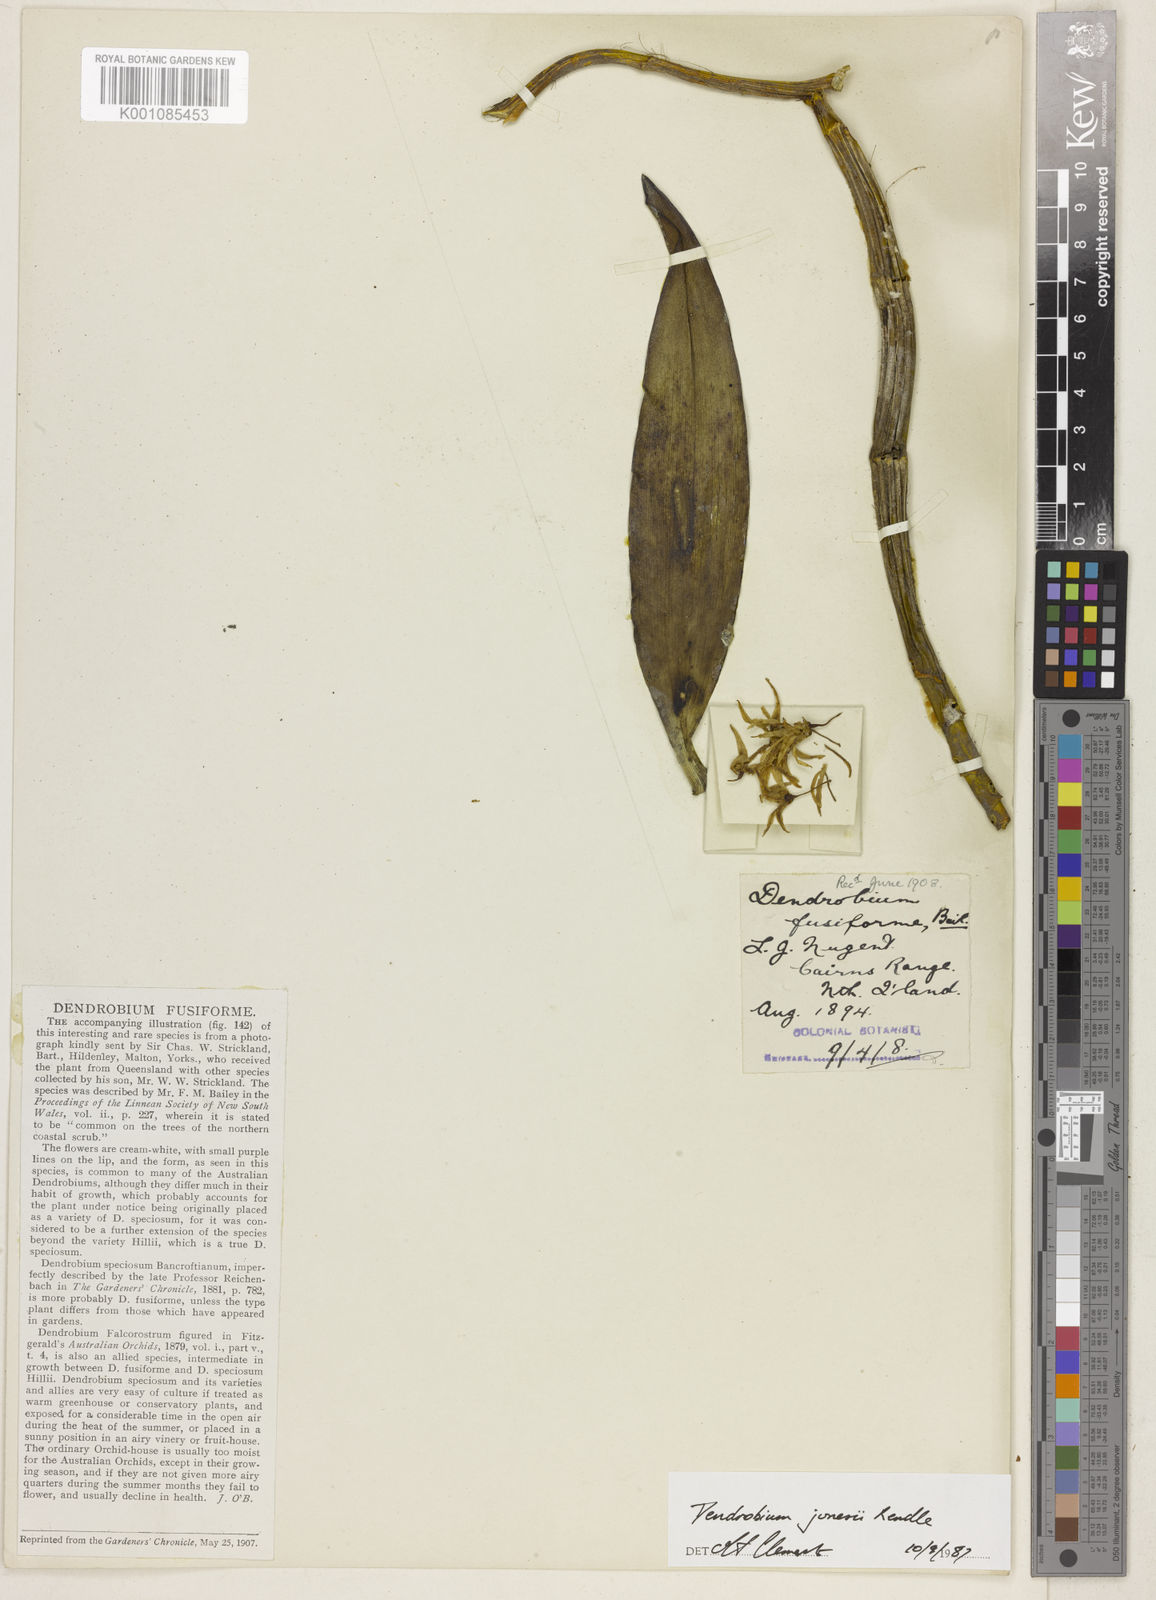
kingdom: Plantae
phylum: Tracheophyta
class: Liliopsida
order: Asparagales
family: Orchidaceae
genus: Dendrobium
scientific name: Dendrobium jonesii
